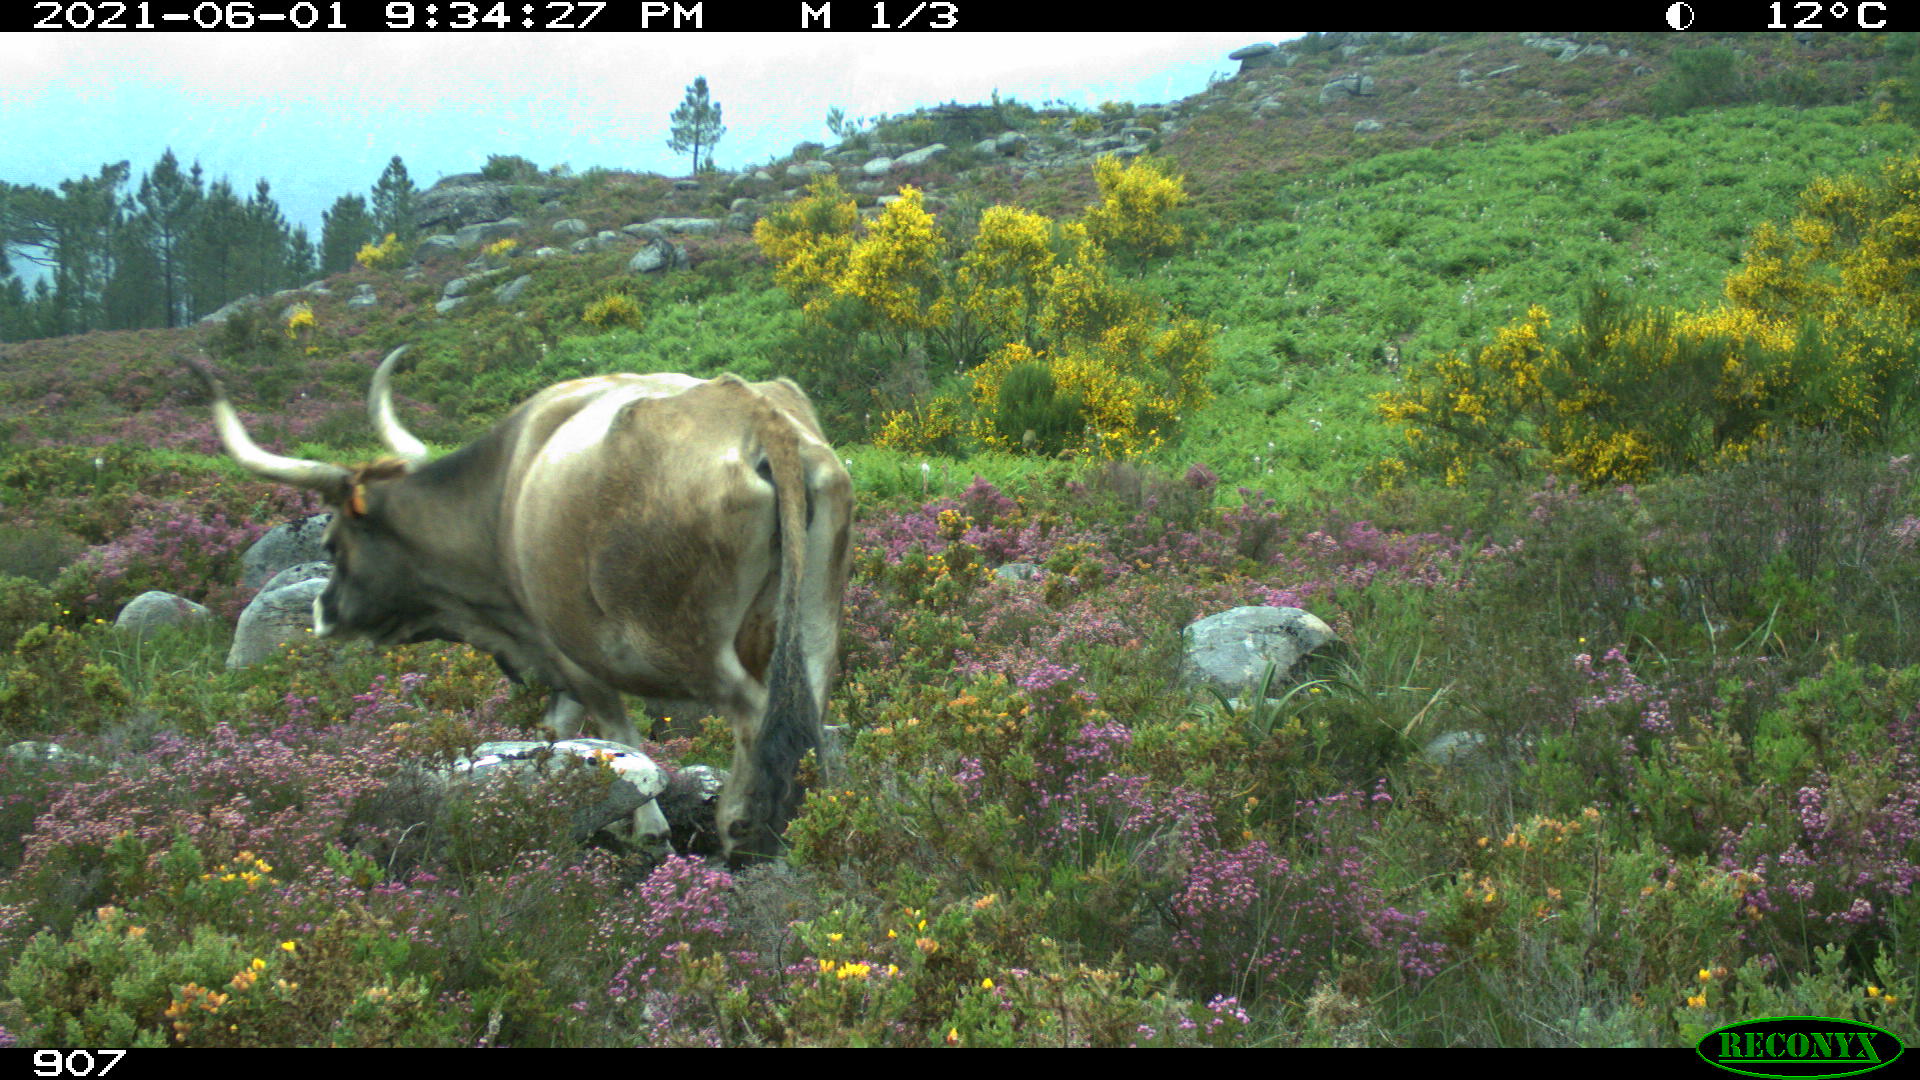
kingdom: Animalia
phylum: Chordata
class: Mammalia
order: Artiodactyla
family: Bovidae
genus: Bos
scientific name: Bos taurus
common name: Domesticated cattle
